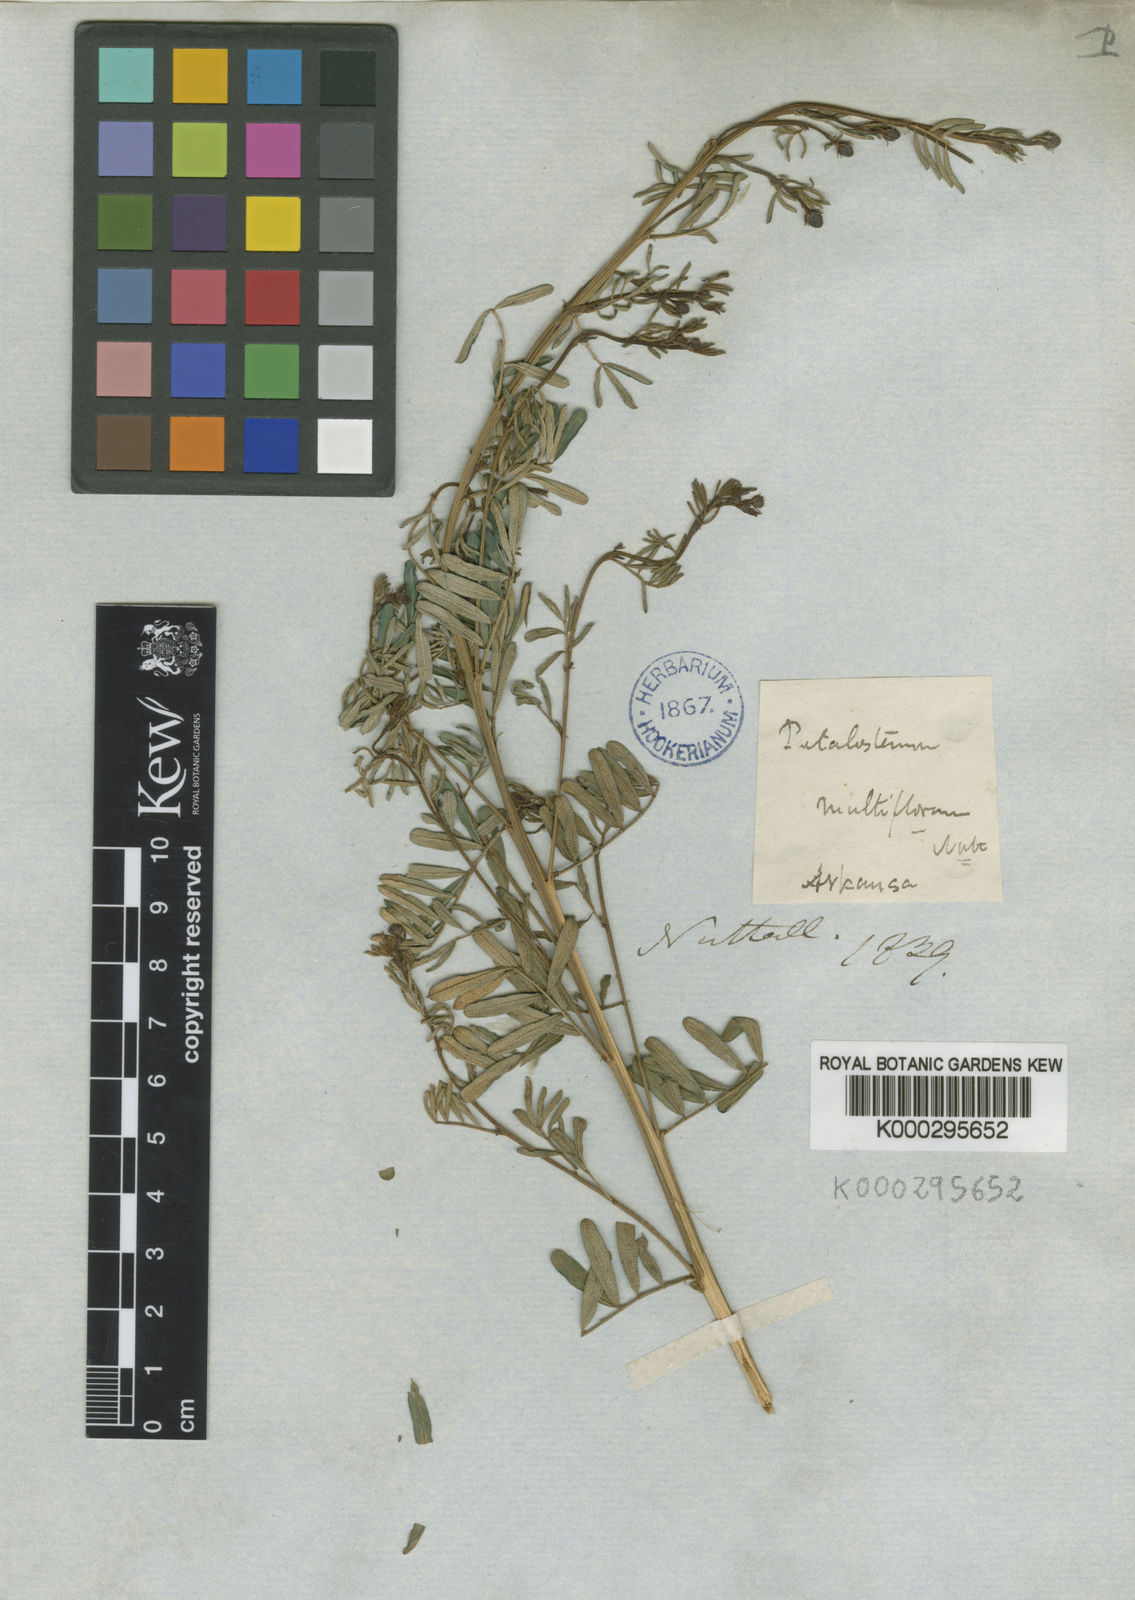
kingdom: Plantae
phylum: Tracheophyta
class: Magnoliopsida
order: Fabales
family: Fabaceae
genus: Dalea
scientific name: Dalea mountjoyae
